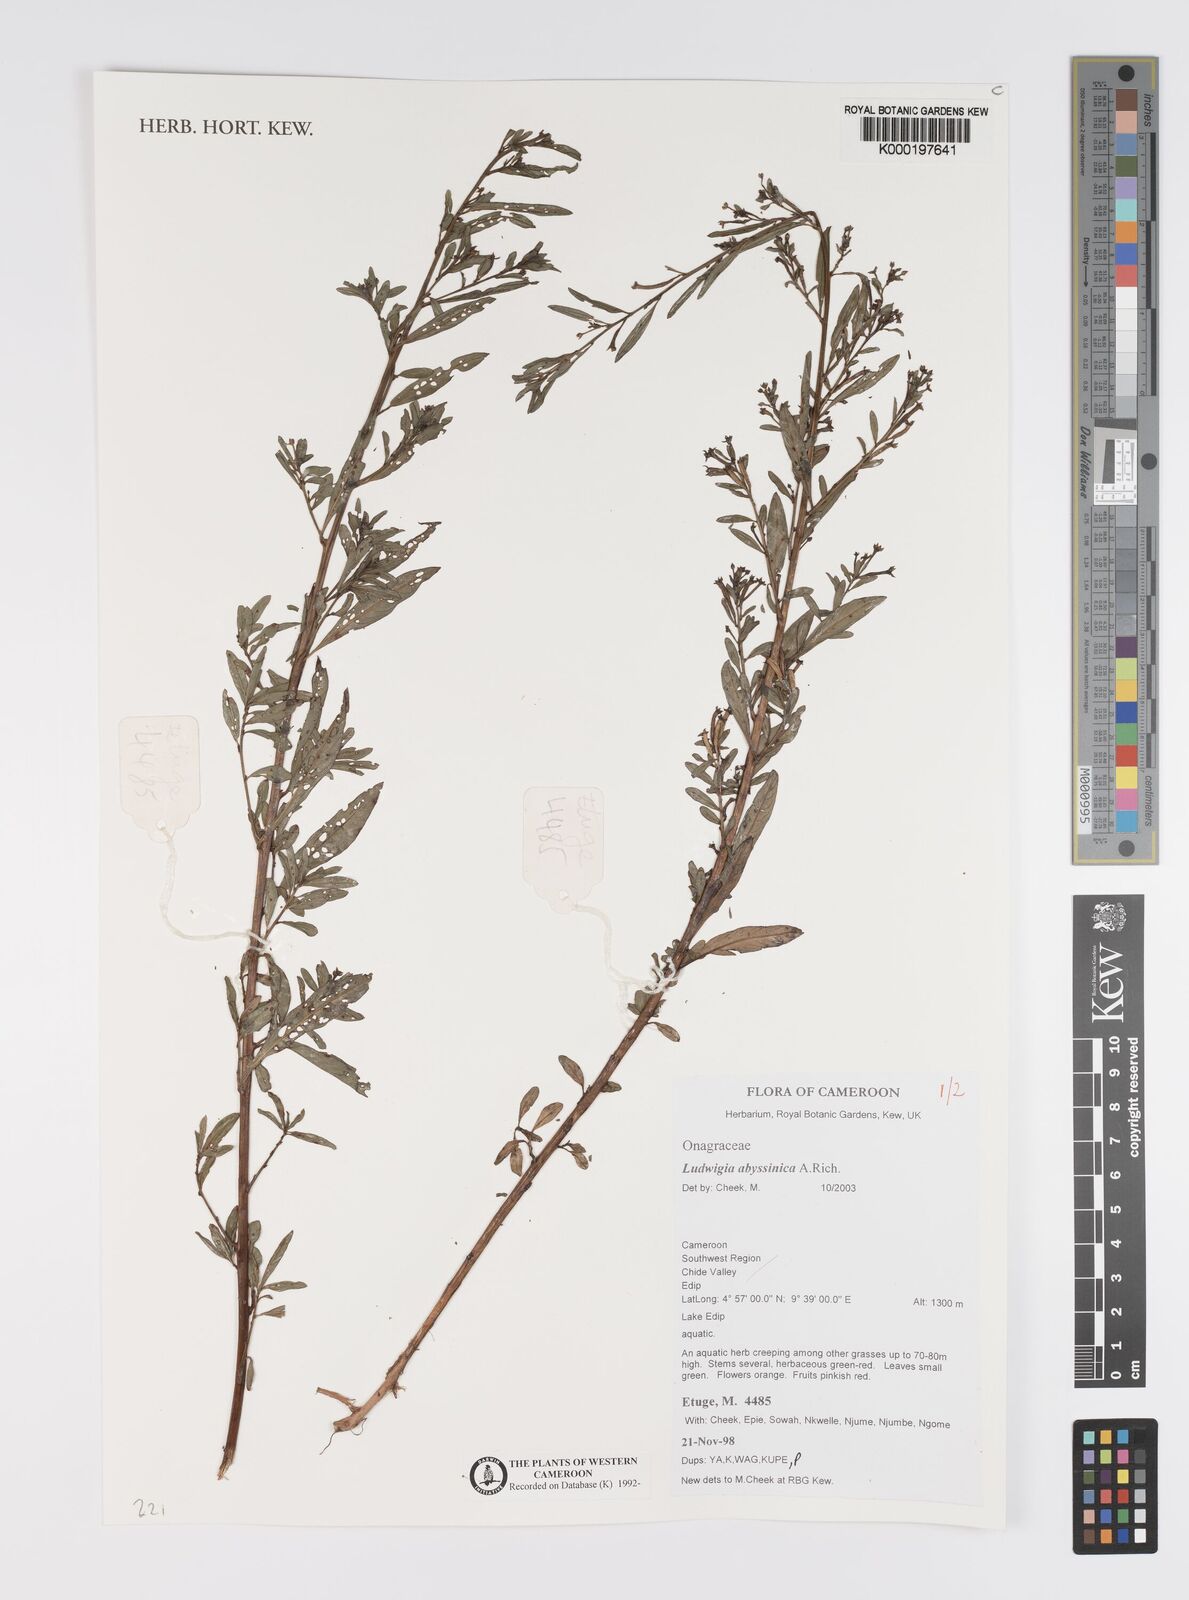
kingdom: Plantae
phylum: Tracheophyta
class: Magnoliopsida
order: Myrtales
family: Onagraceae
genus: Ludwigia
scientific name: Ludwigia abyssinica
